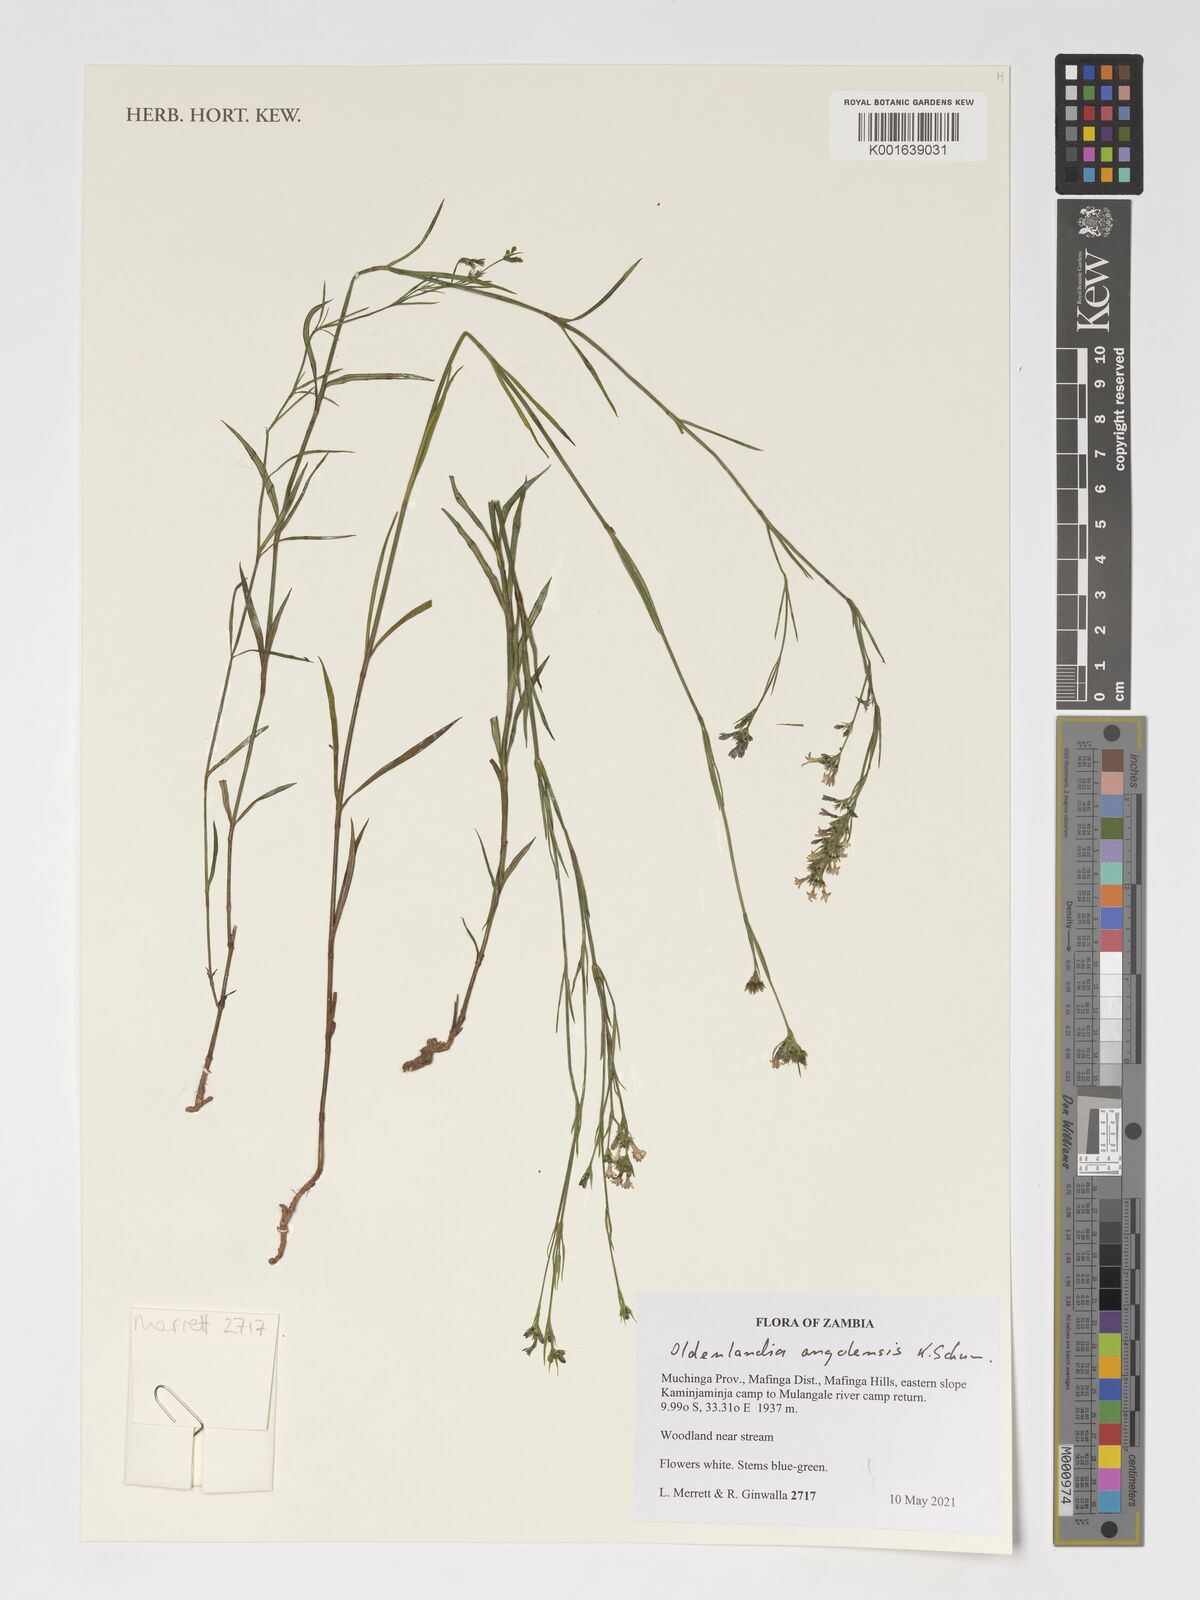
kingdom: Plantae
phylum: Tracheophyta
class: Magnoliopsida
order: Gentianales
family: Rubiaceae
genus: Edrastima
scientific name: Edrastima angolensis
